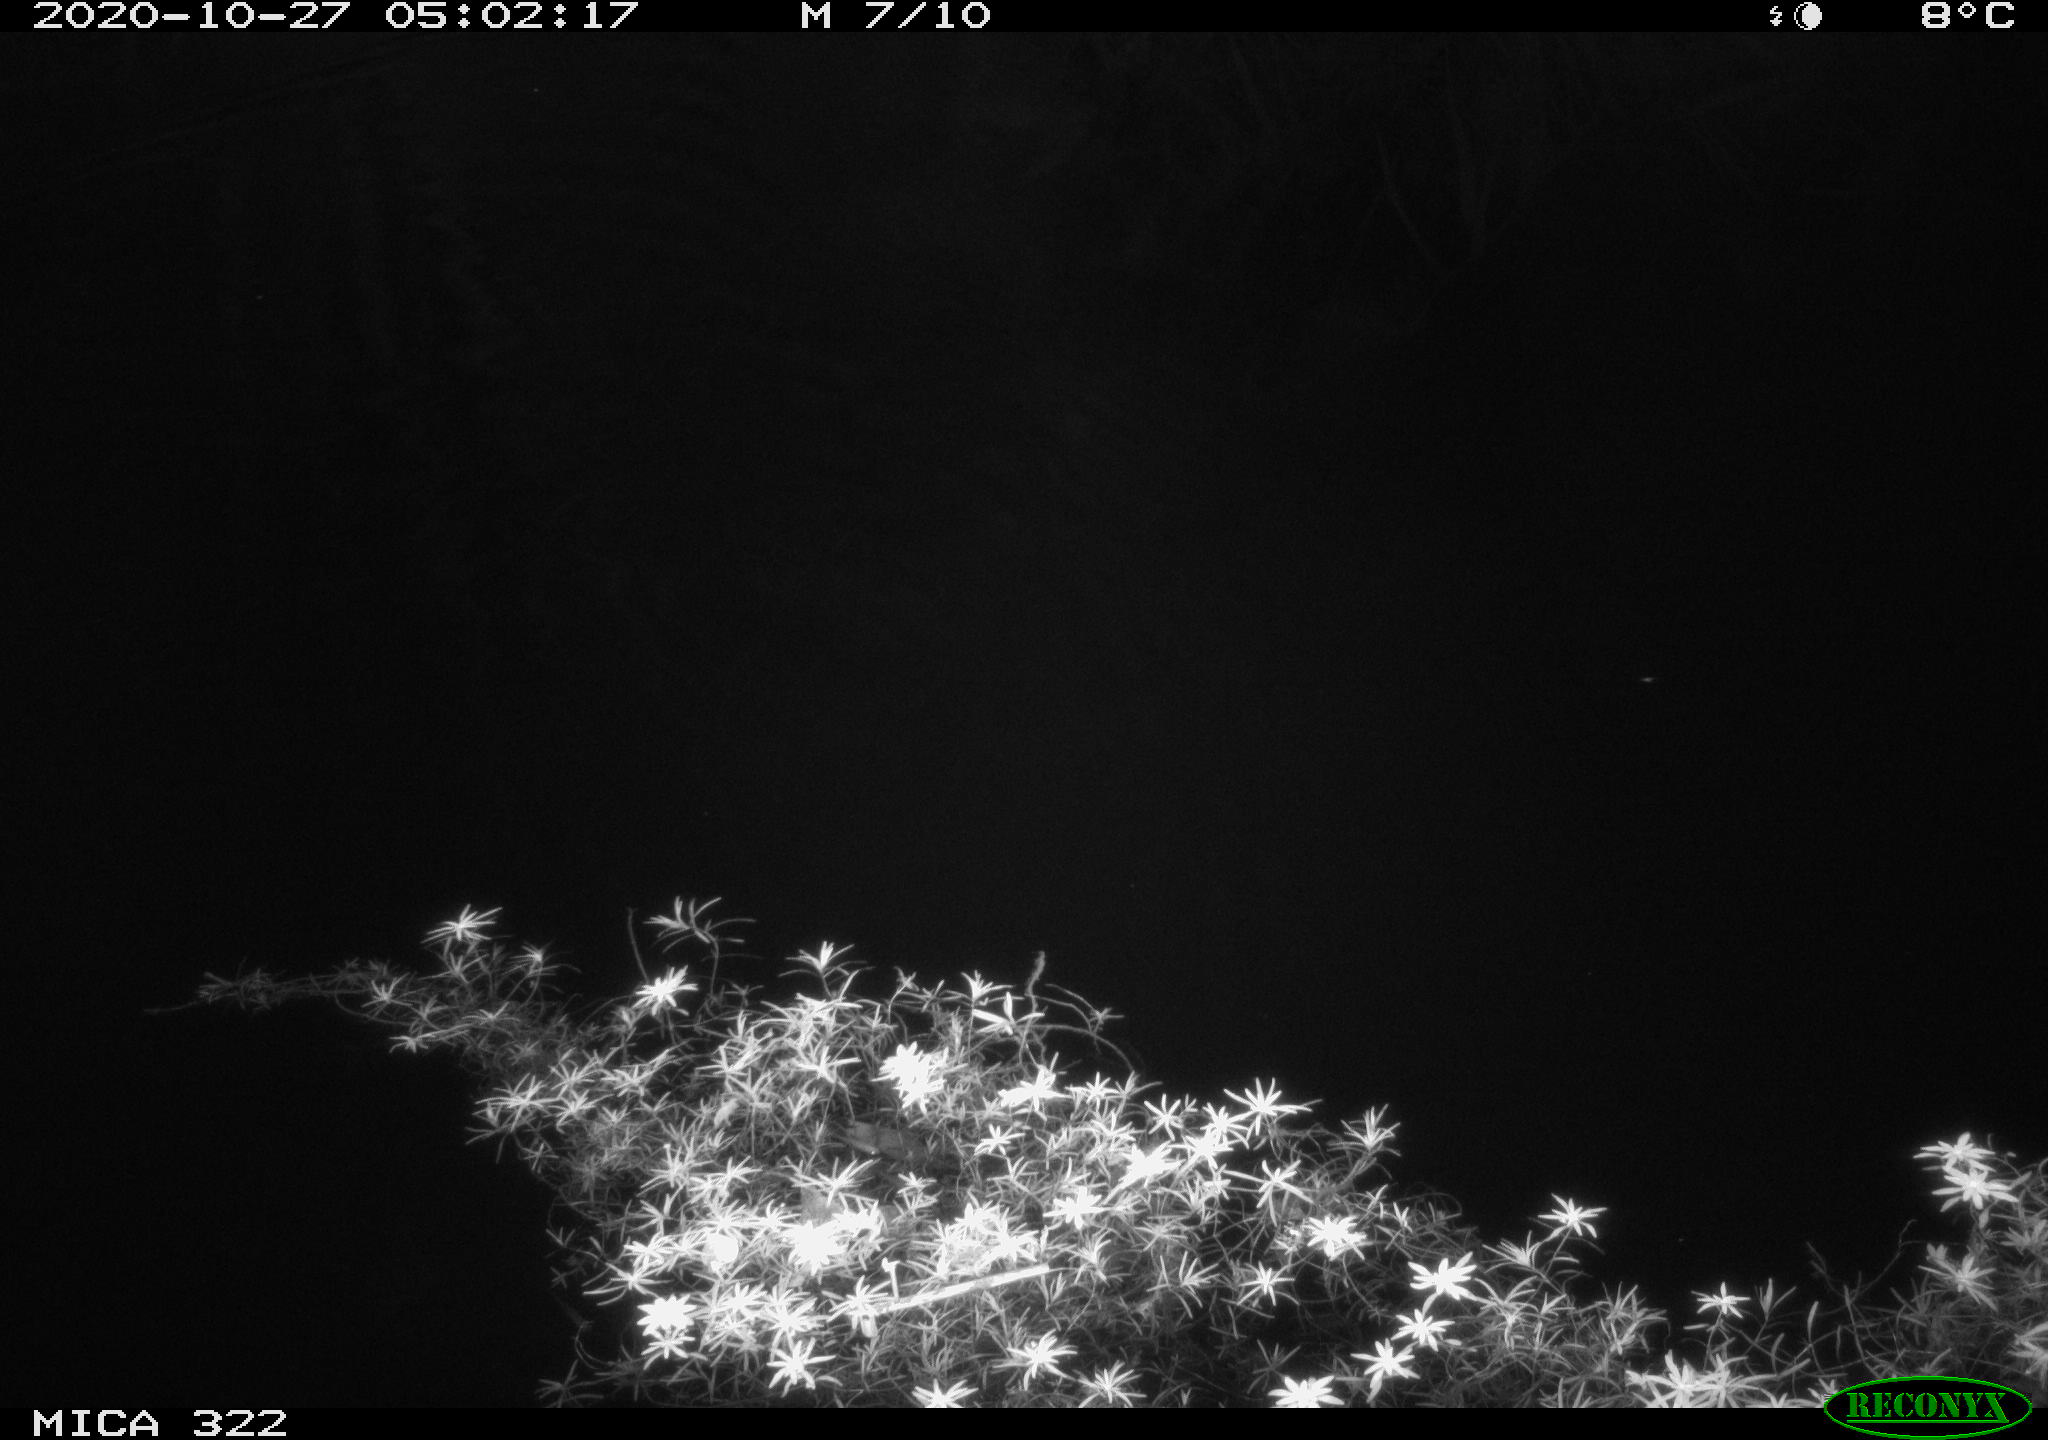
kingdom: Animalia
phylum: Chordata
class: Mammalia
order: Rodentia
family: Muridae
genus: Apodemus
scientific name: Apodemus sylvaticus
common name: Wood mouse
